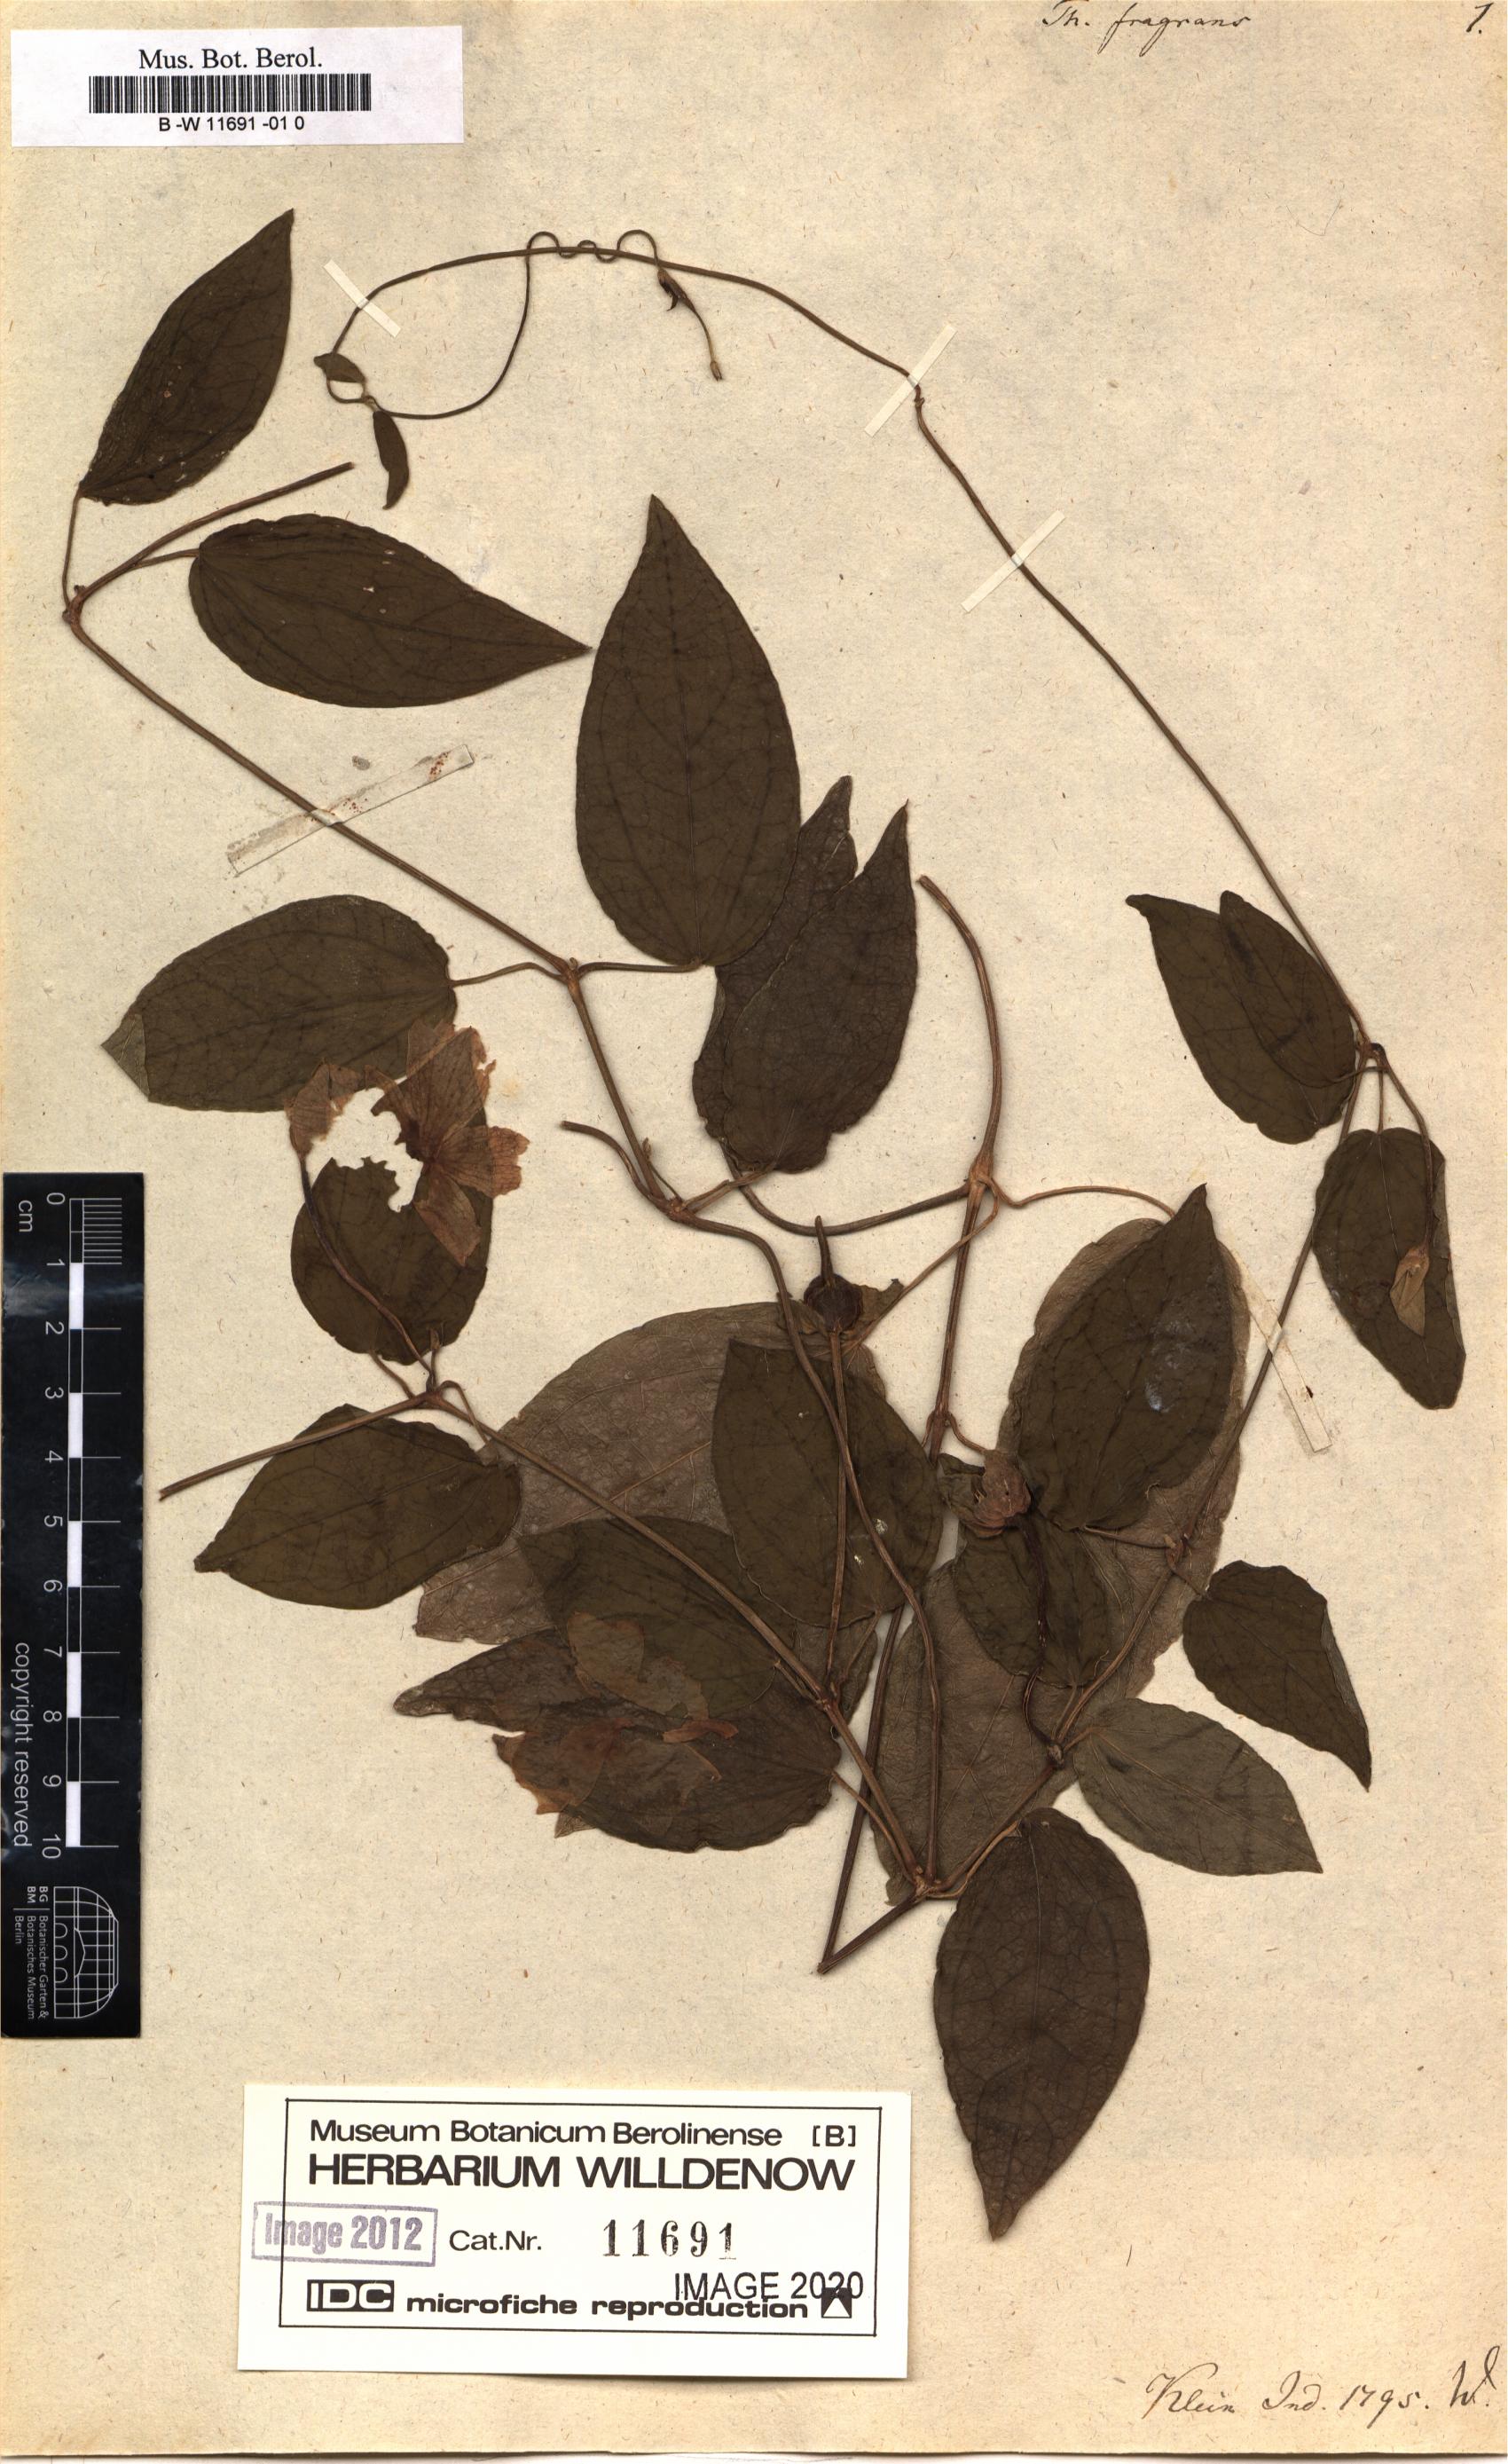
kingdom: Plantae
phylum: Tracheophyta
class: Magnoliopsida
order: Lamiales
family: Acanthaceae
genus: Thunbergia
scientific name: Thunbergia fragrans
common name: Whitelady
